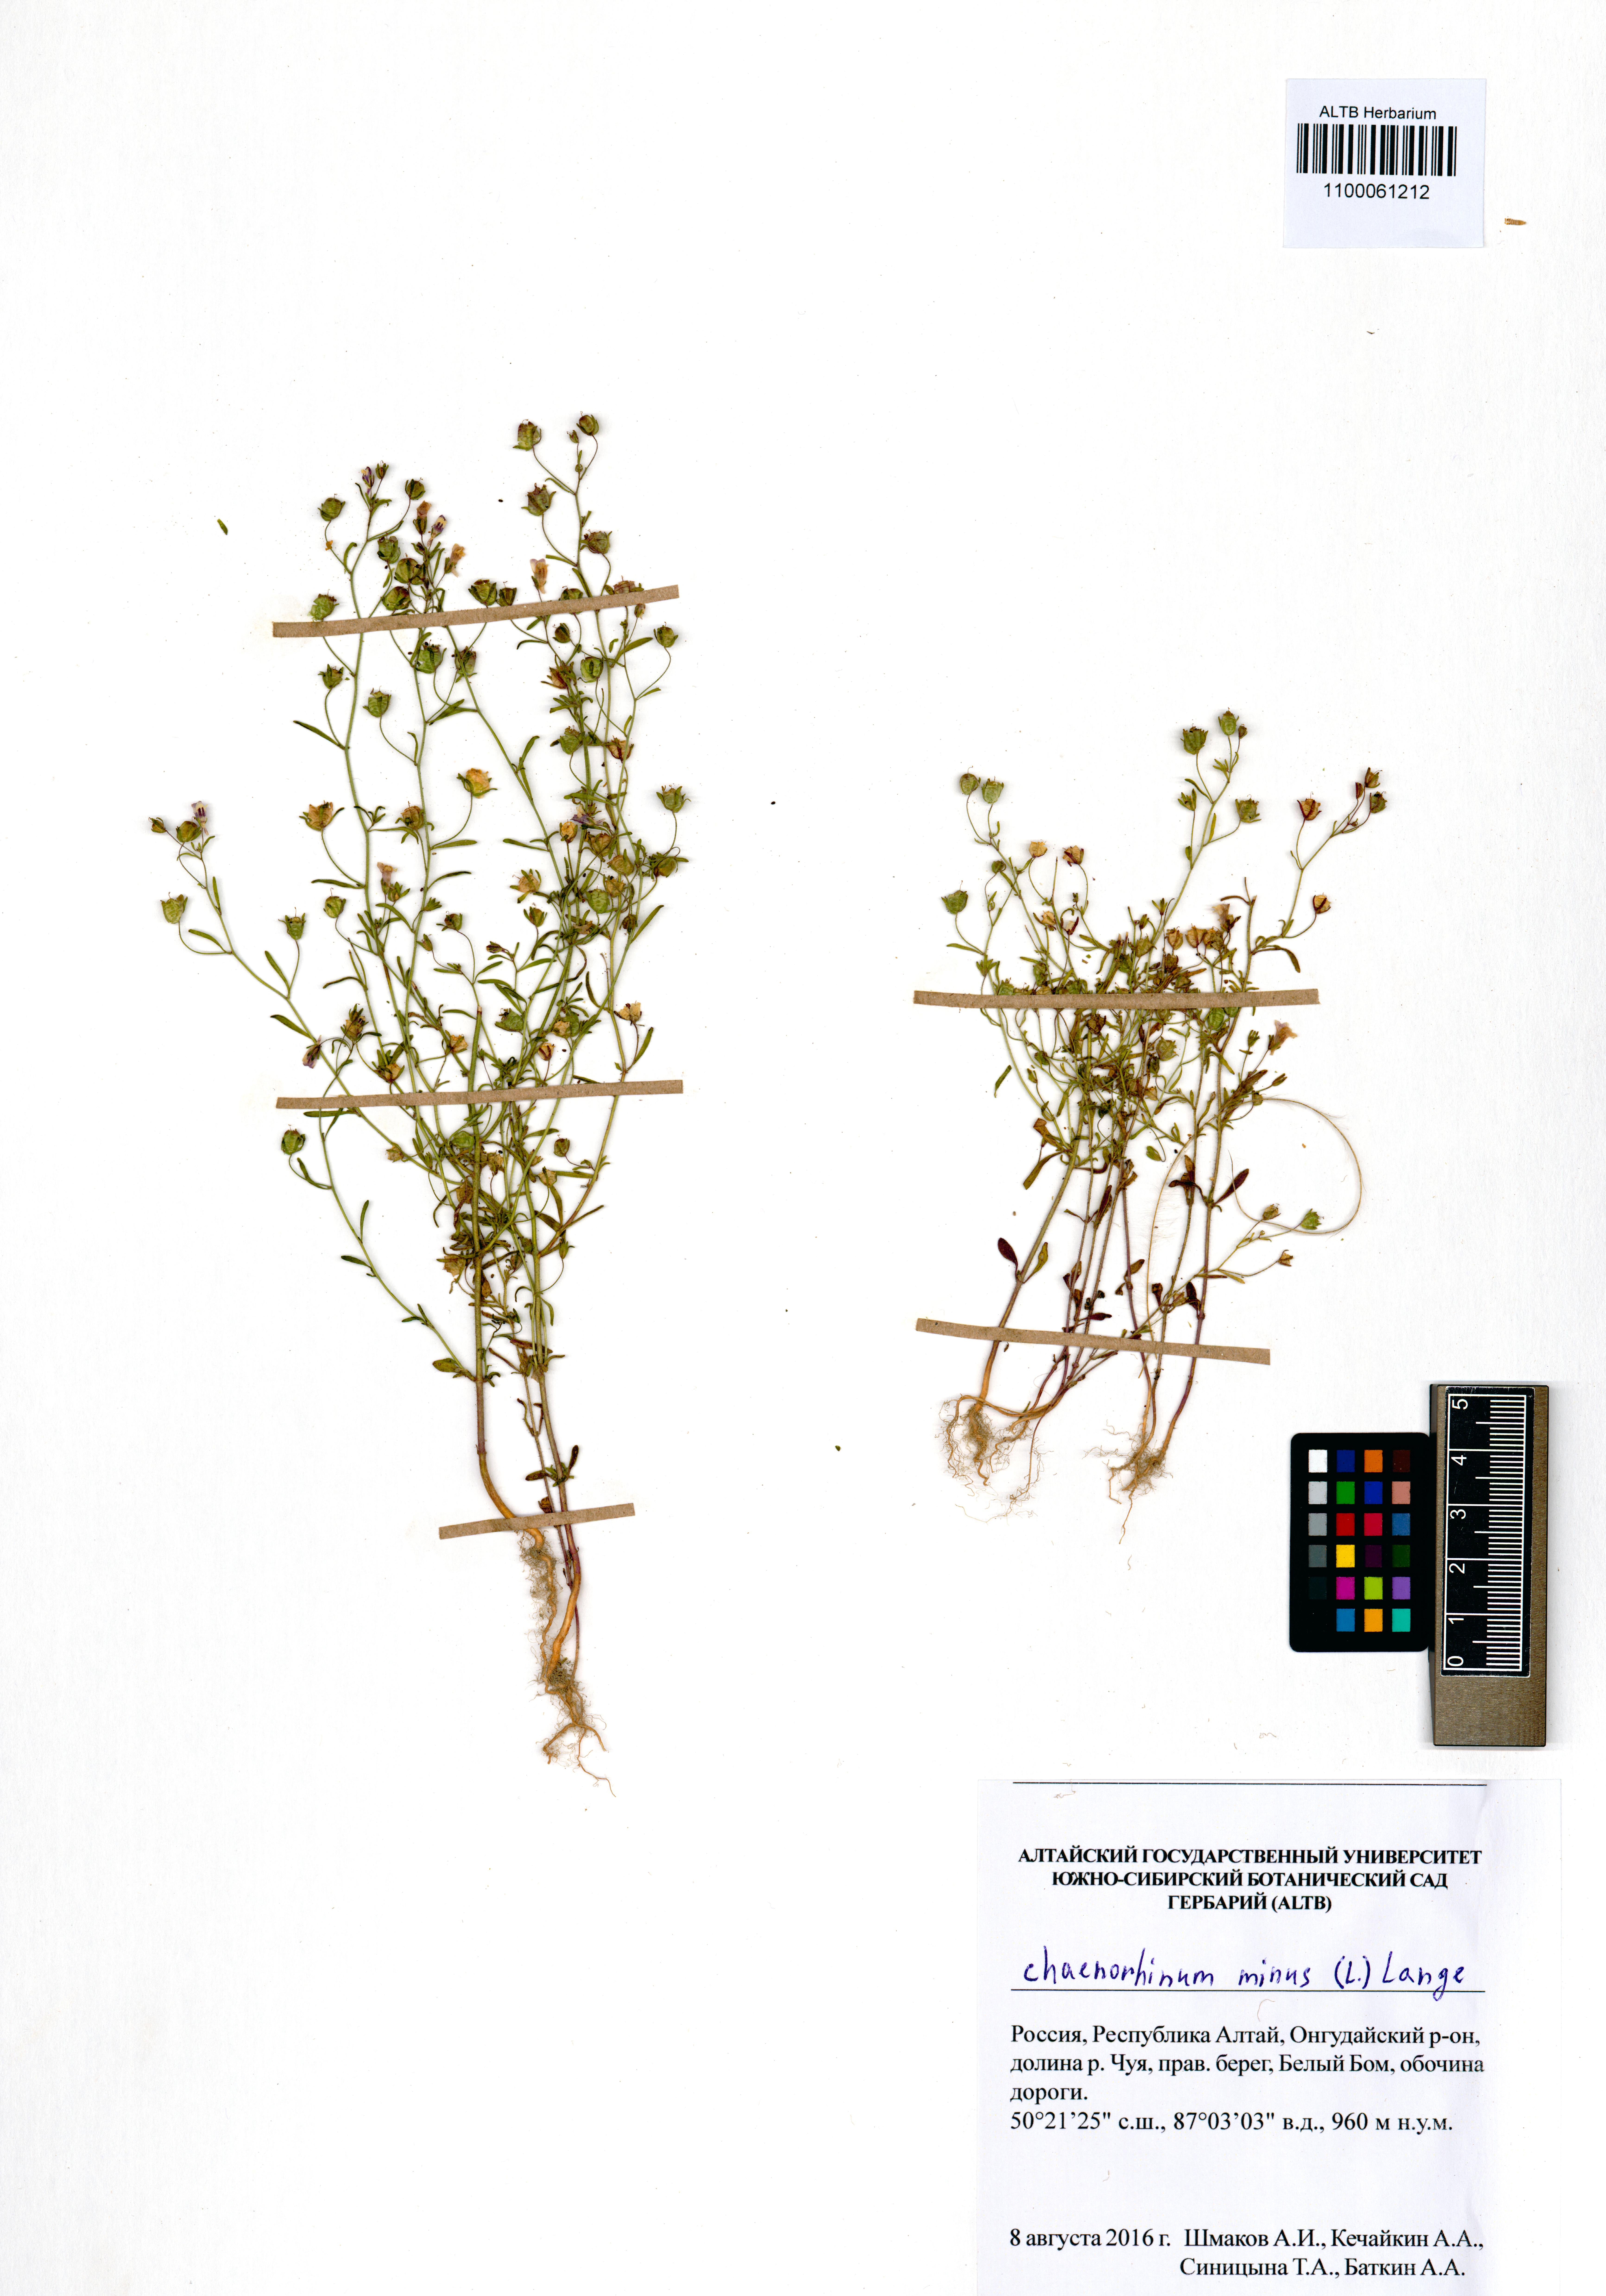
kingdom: Plantae
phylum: Tracheophyta
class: Magnoliopsida
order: Lamiales
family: Plantaginaceae
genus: Chaenorhinum
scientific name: Chaenorhinum minus
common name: Dwarf snapdragon
